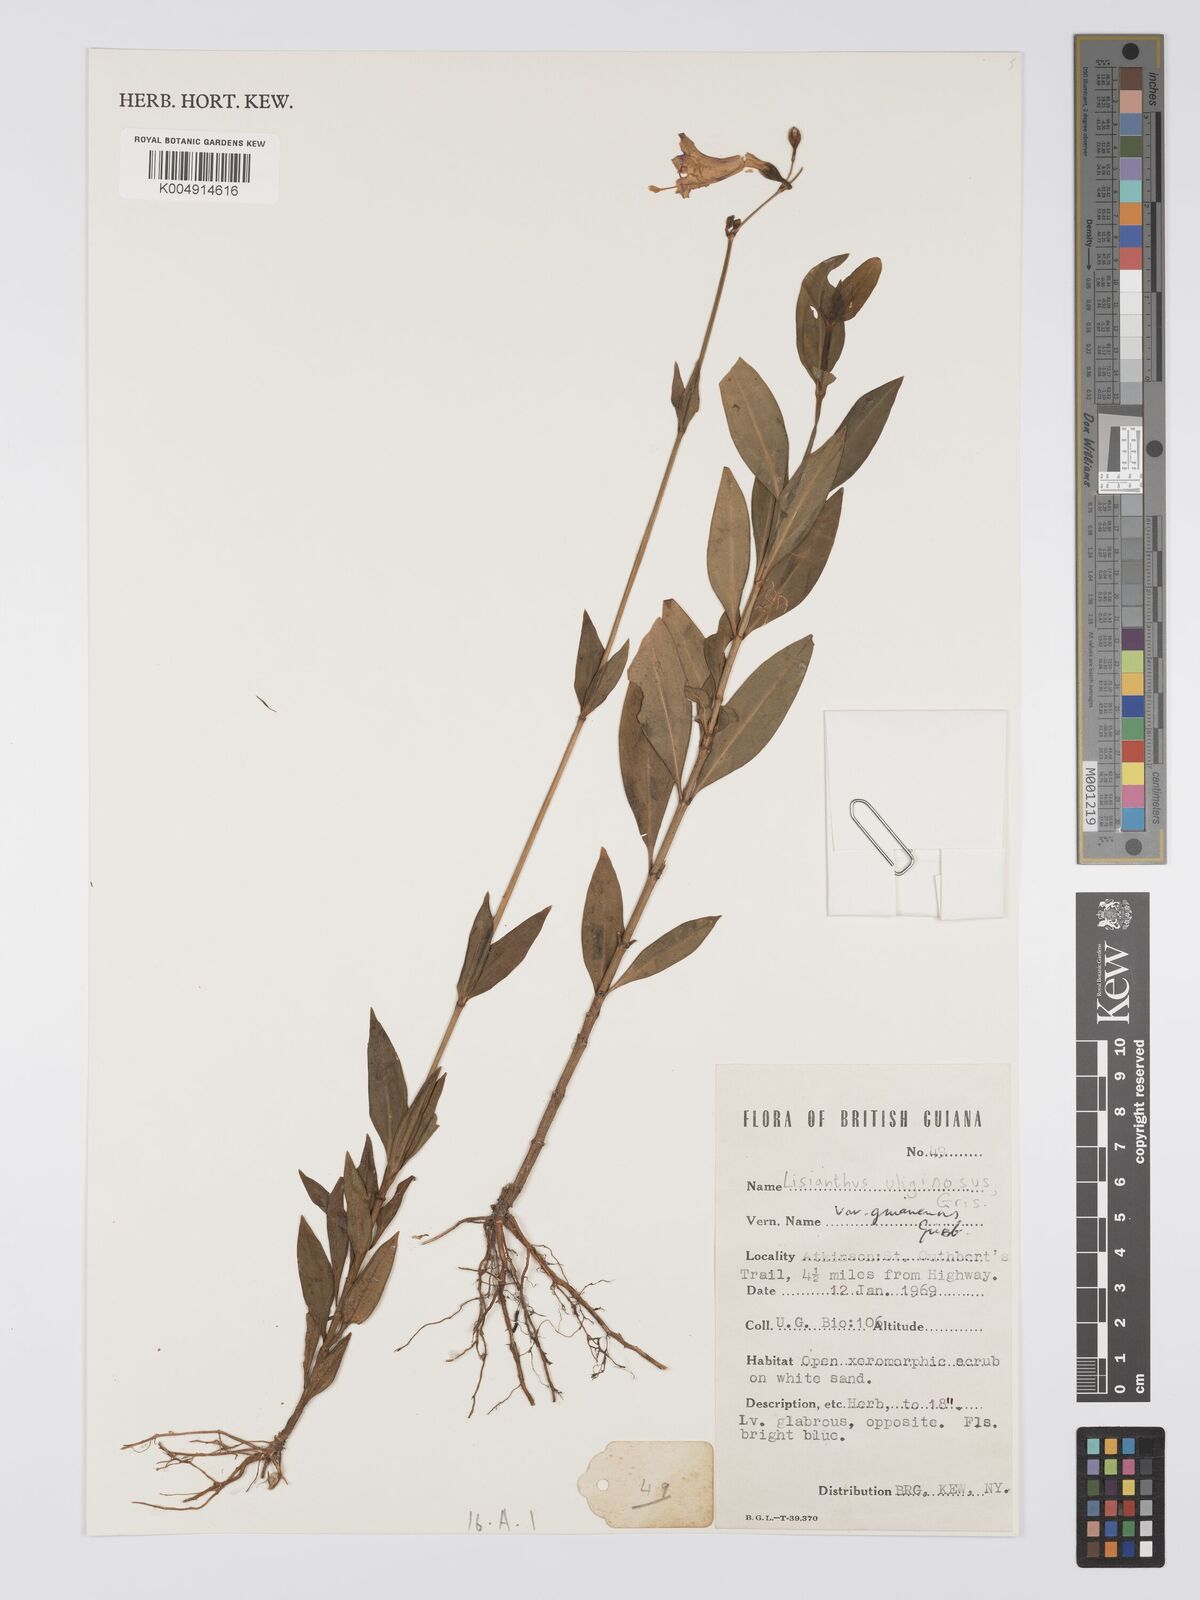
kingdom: Plantae
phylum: Tracheophyta
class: Magnoliopsida
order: Gentianales
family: Gentianaceae
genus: Chelonanthus
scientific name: Chelonanthus purpurascens
